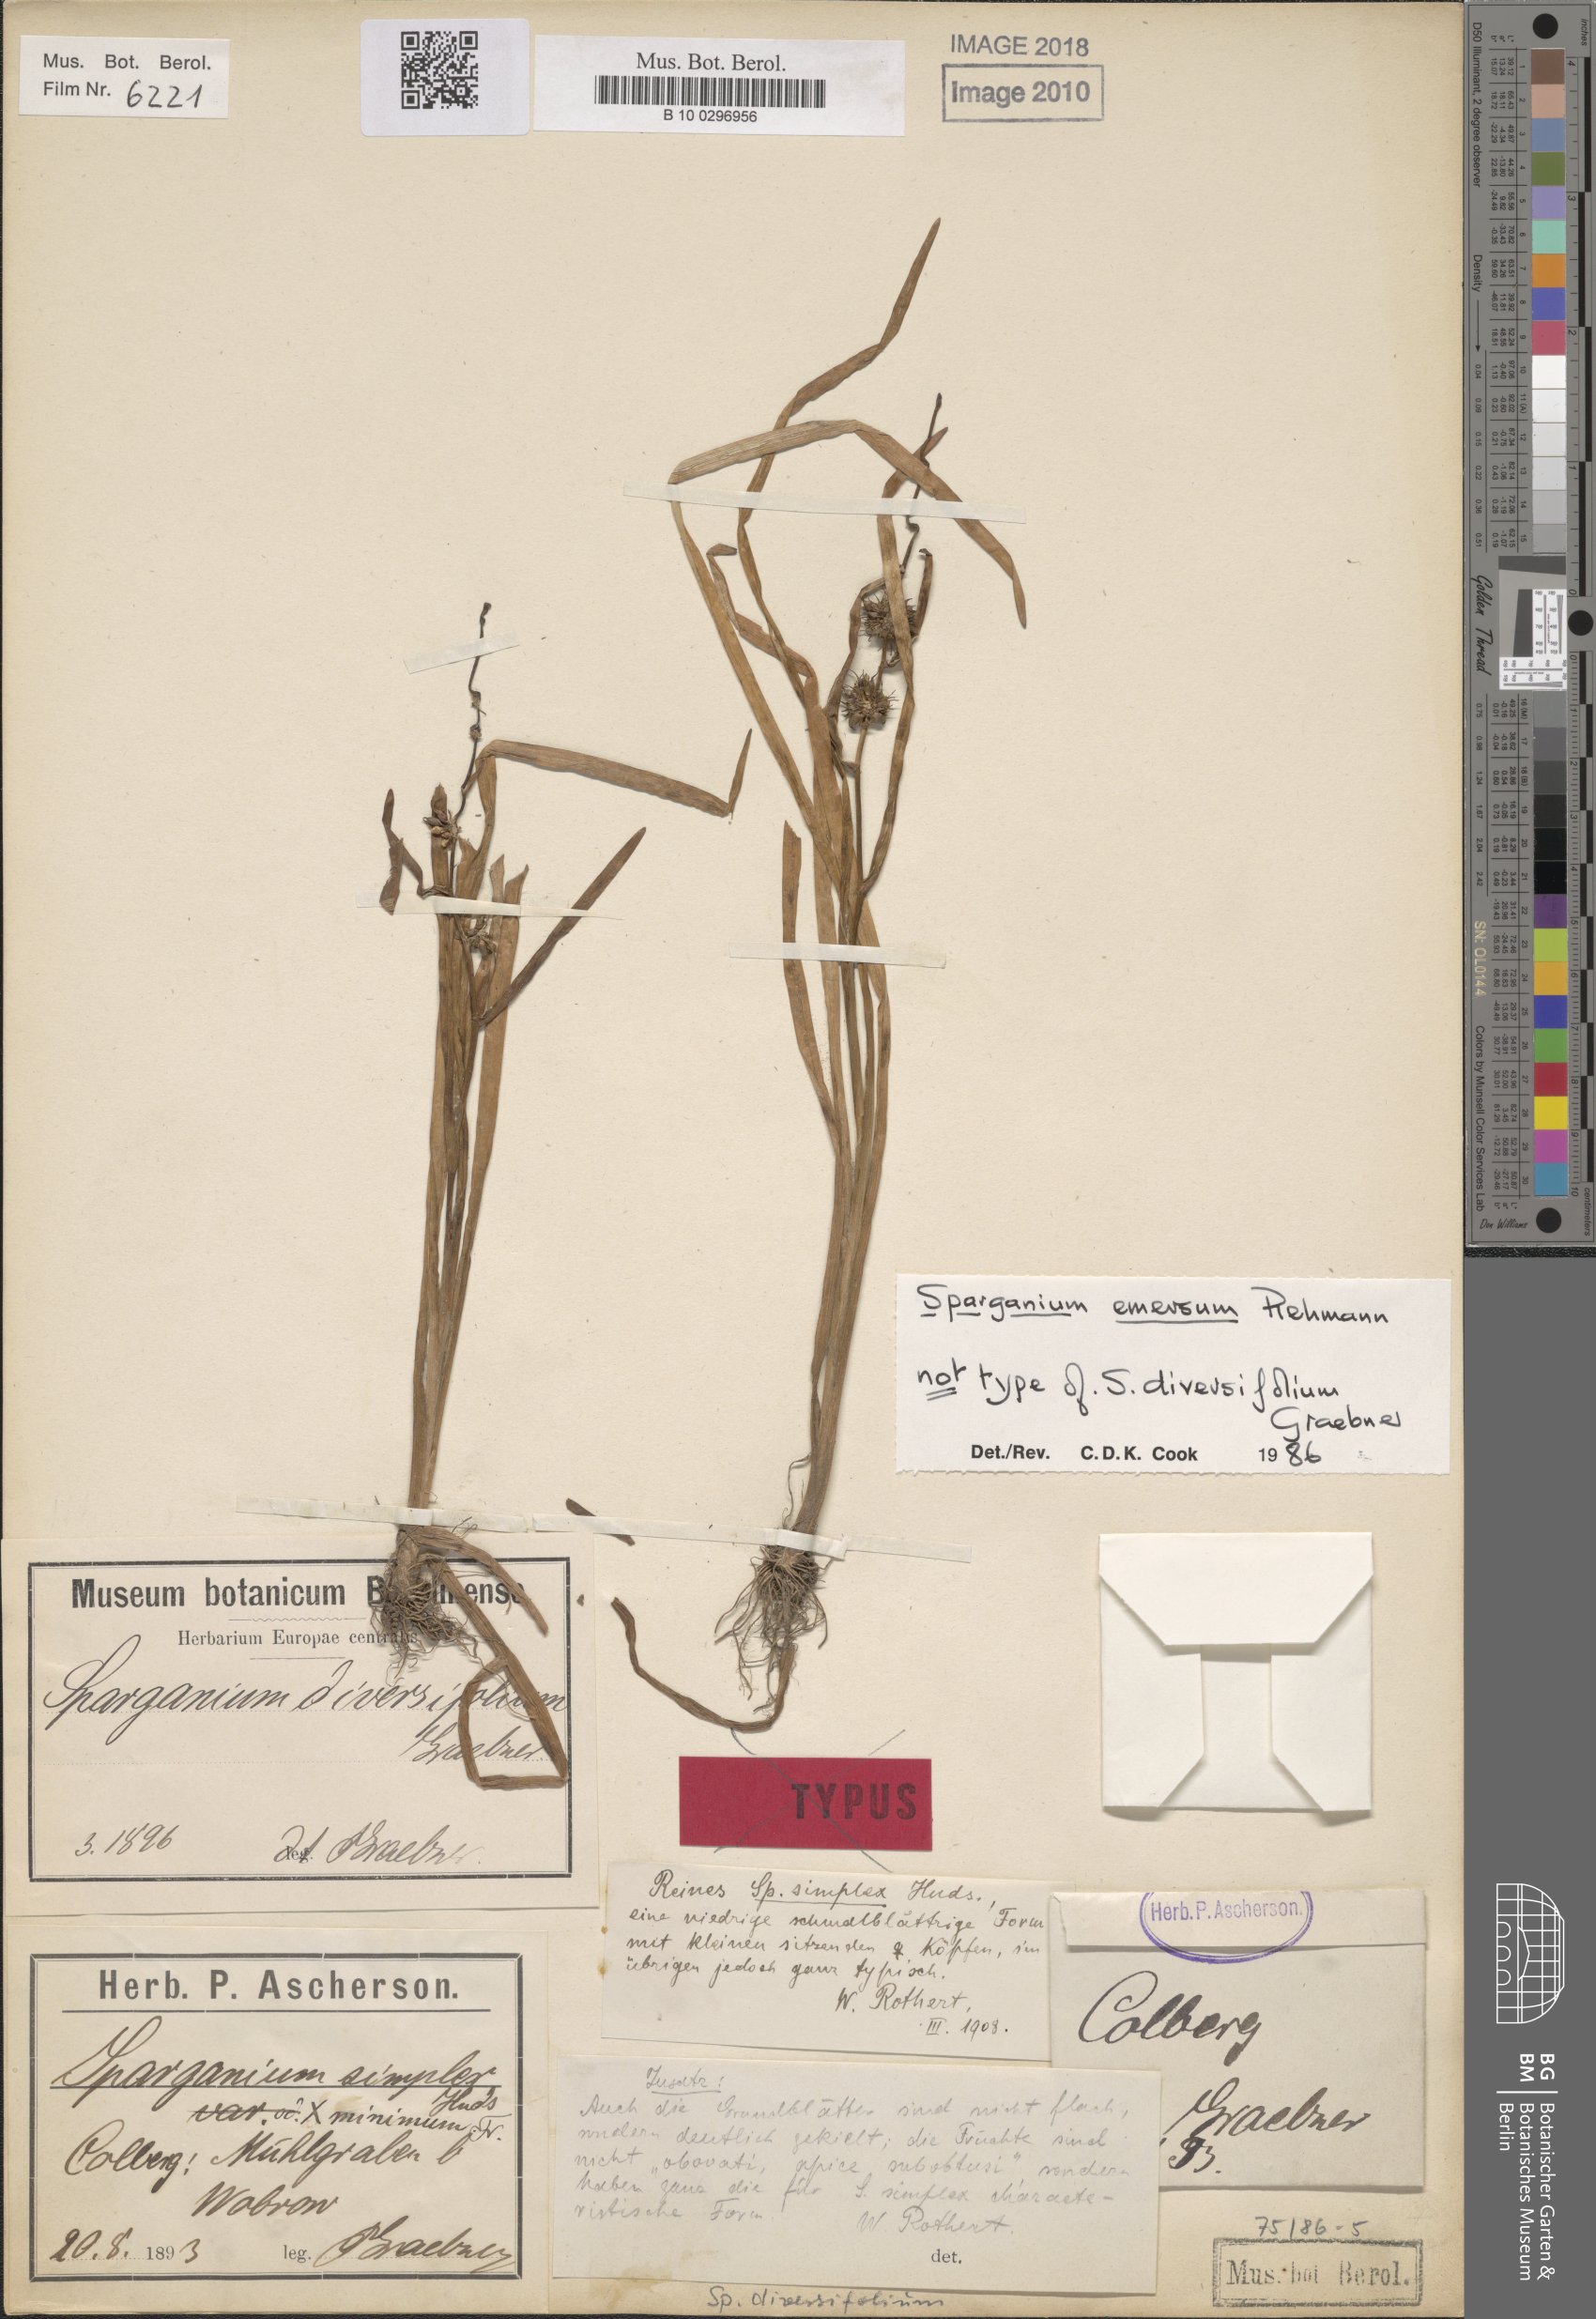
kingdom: Plantae
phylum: Tracheophyta
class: Liliopsida
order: Poales
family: Typhaceae
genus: Sparganium
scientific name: Sparganium emersum
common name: Unbranched bur-reed
